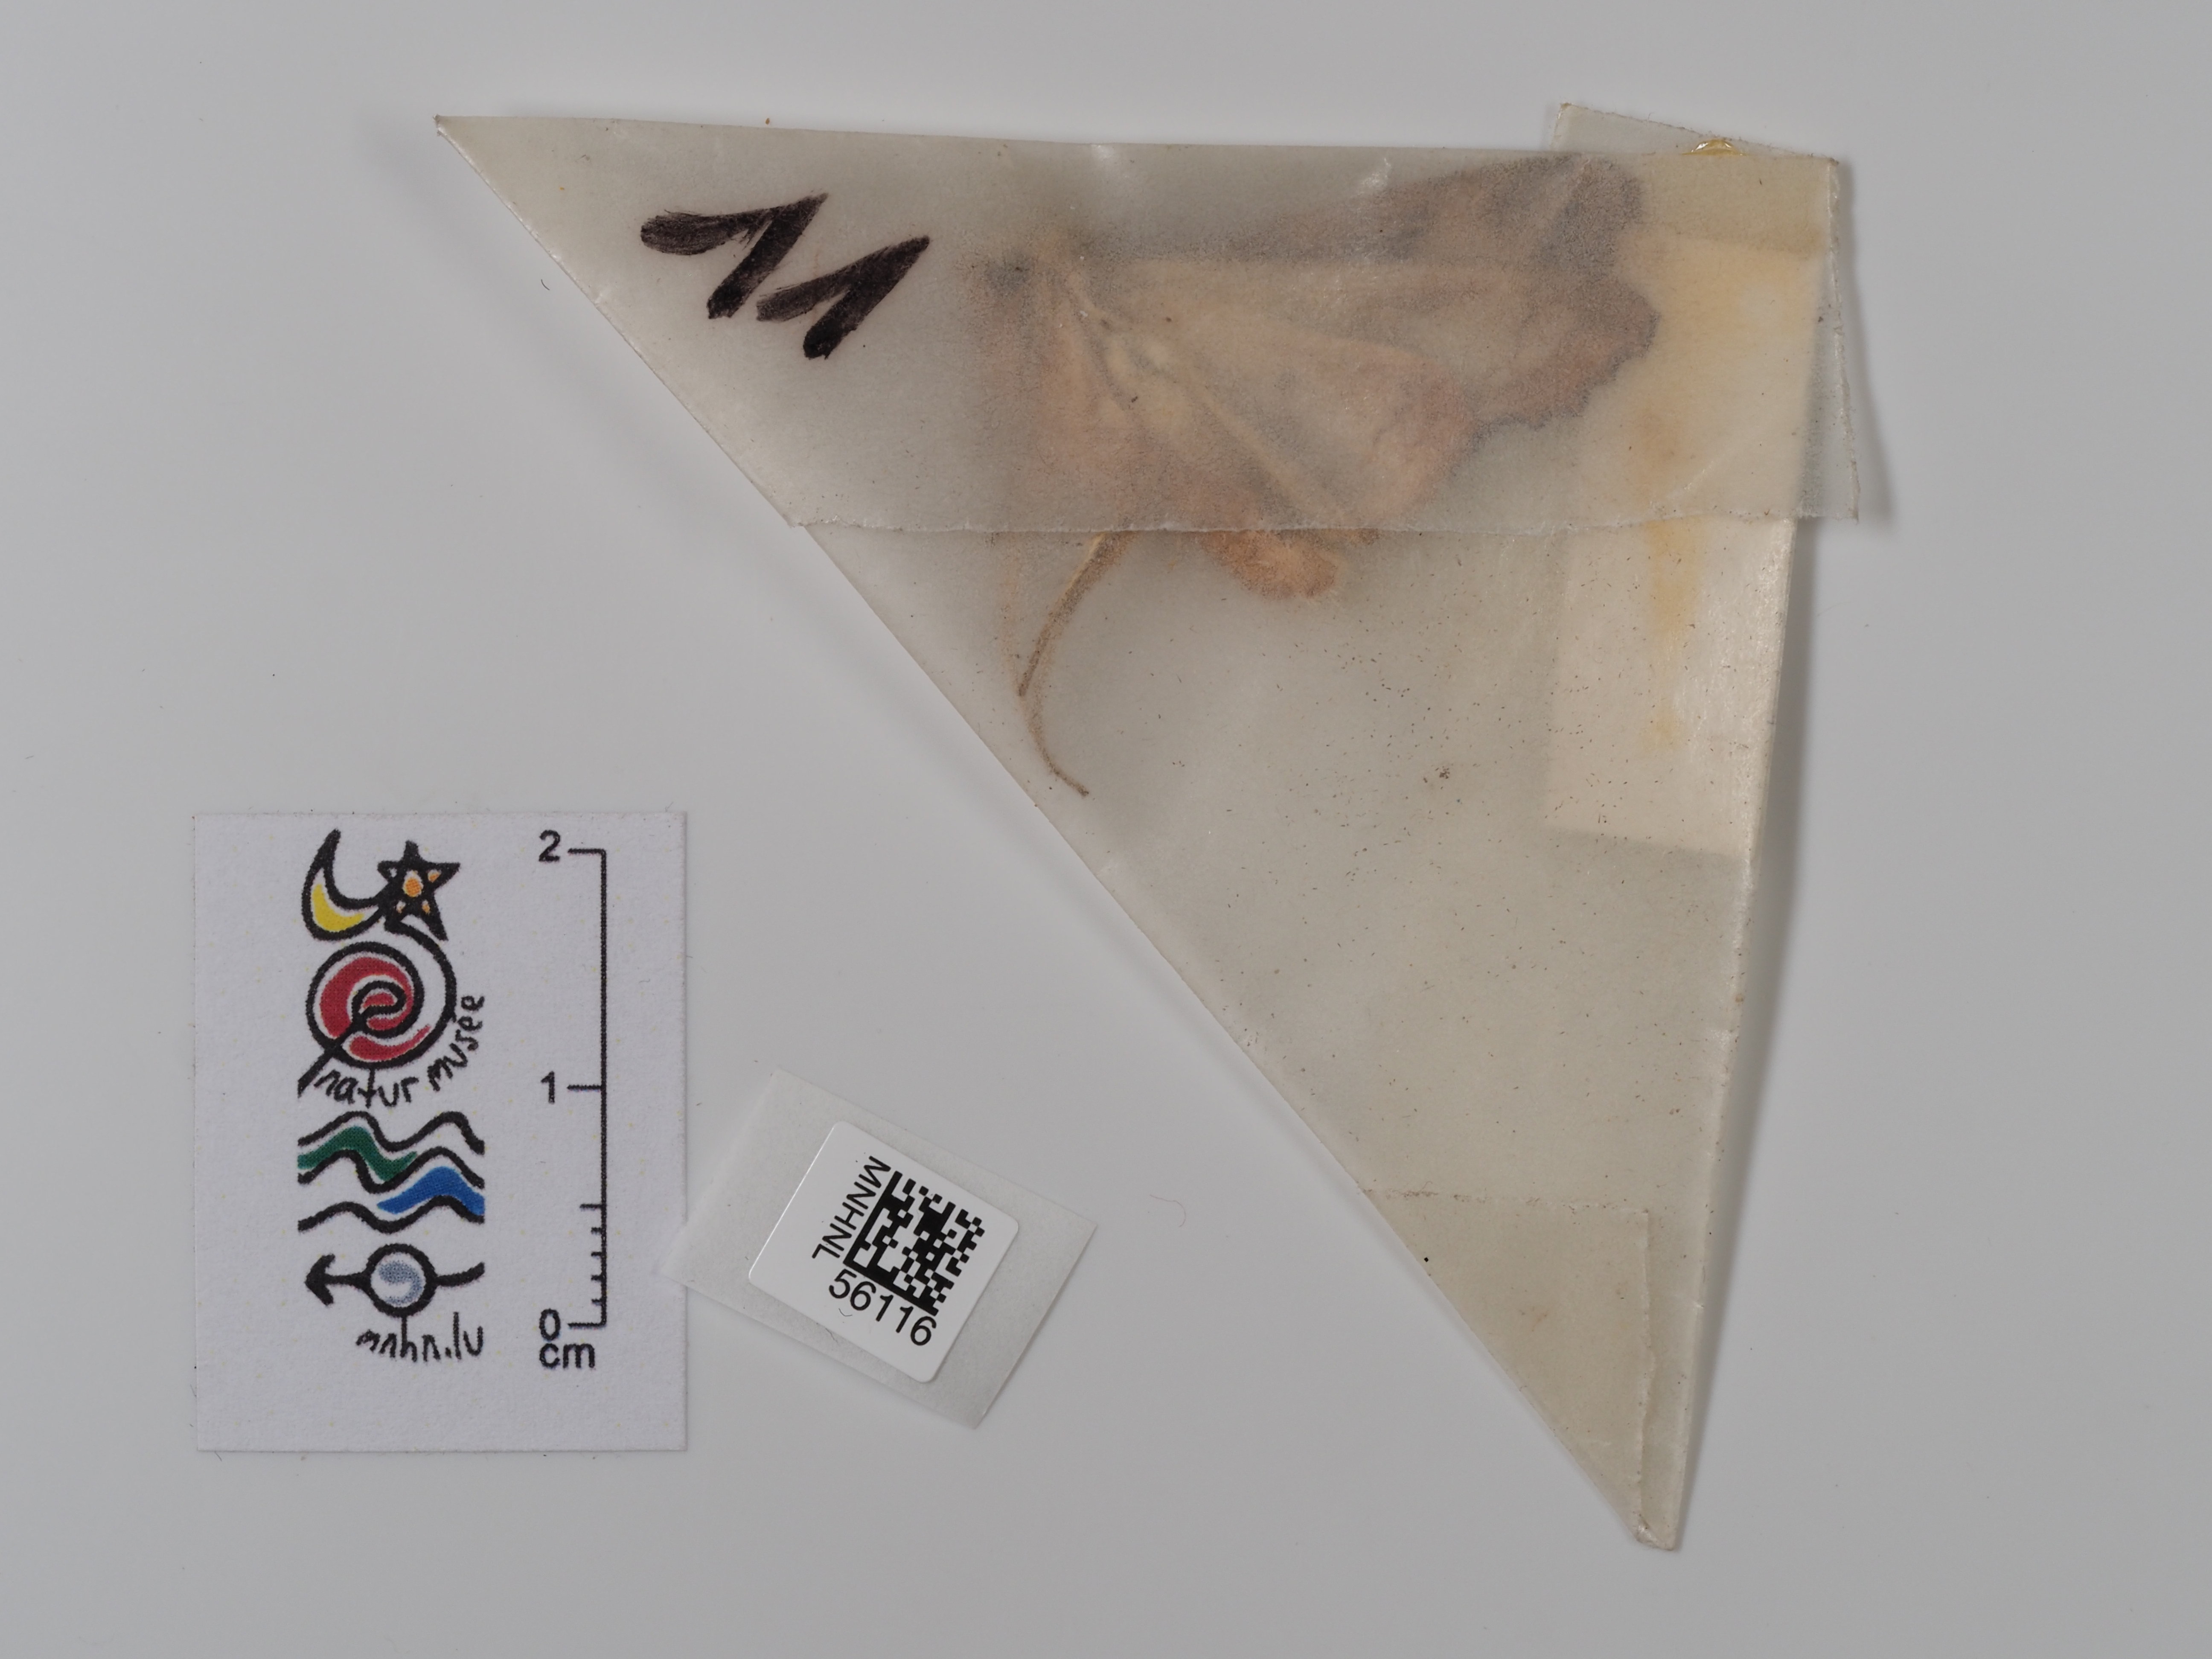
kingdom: Animalia
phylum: Arthropoda
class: Insecta
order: Lepidoptera
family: Noctuidae
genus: Phlogophora
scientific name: Phlogophora meticulosa
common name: Angle shades
